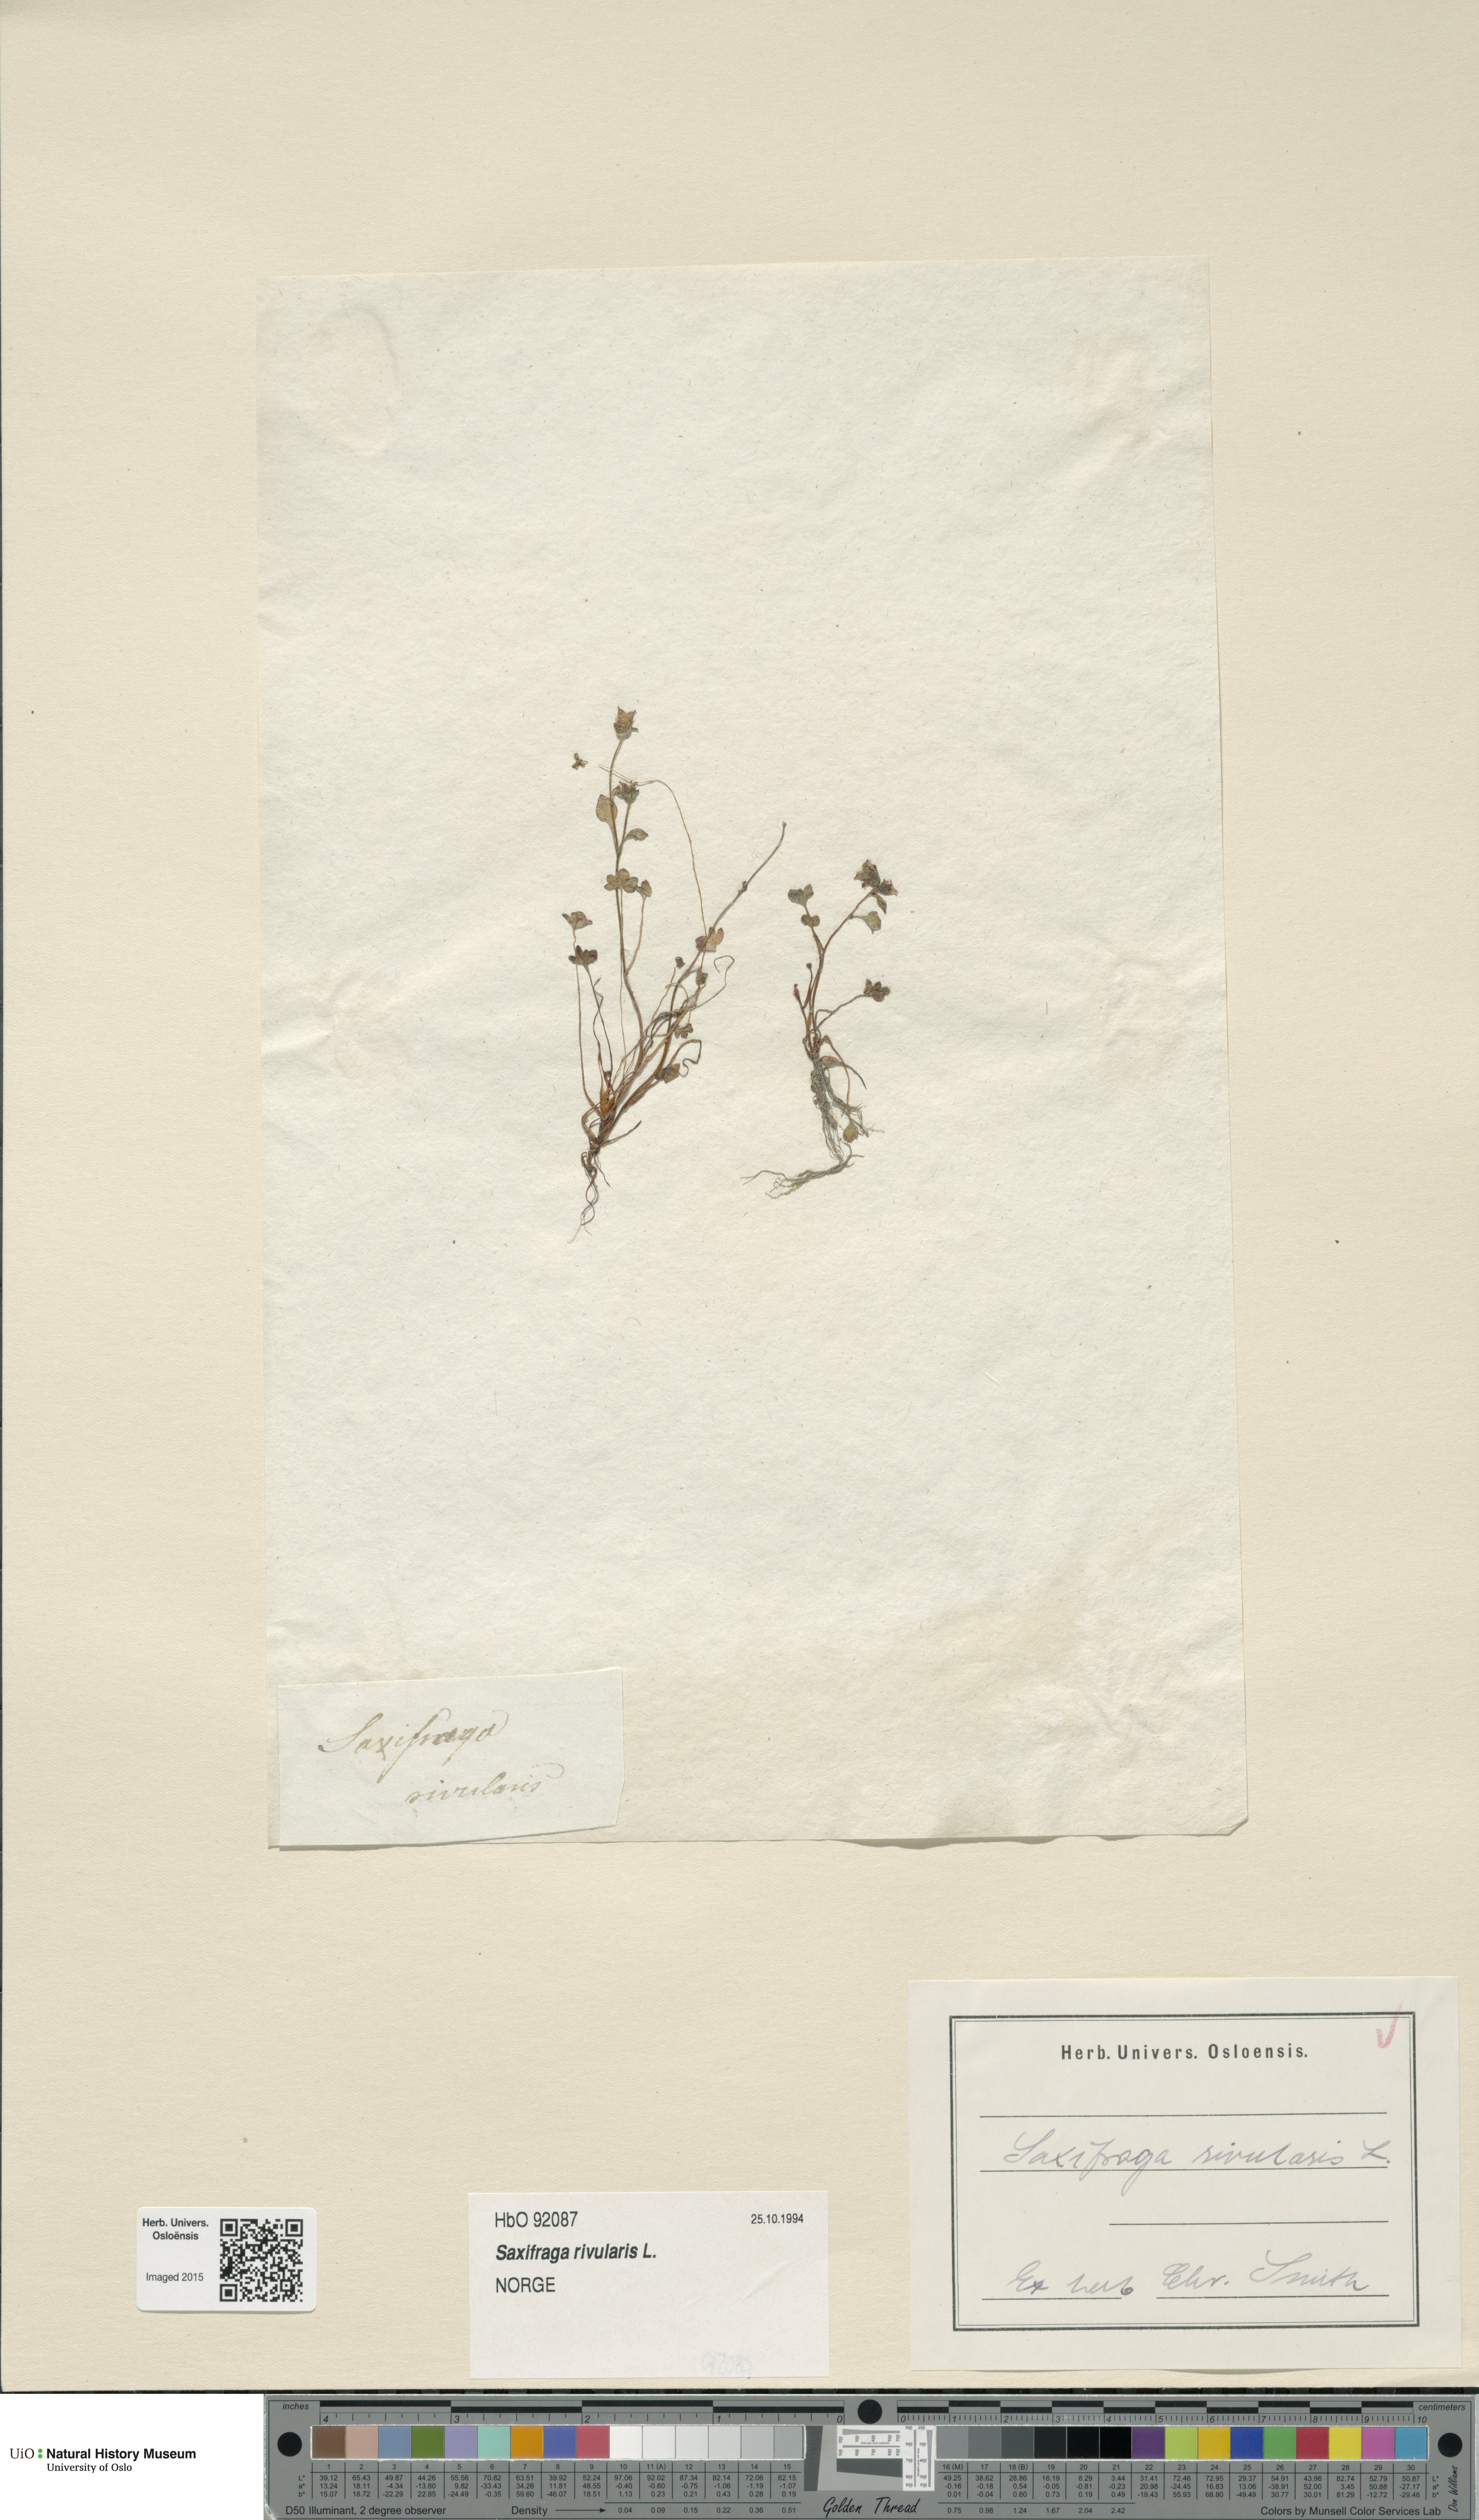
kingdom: Plantae
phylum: Tracheophyta
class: Magnoliopsida
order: Saxifragales
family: Saxifragaceae
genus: Saxifraga
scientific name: Saxifraga rivularis
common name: Highland saxifrage
